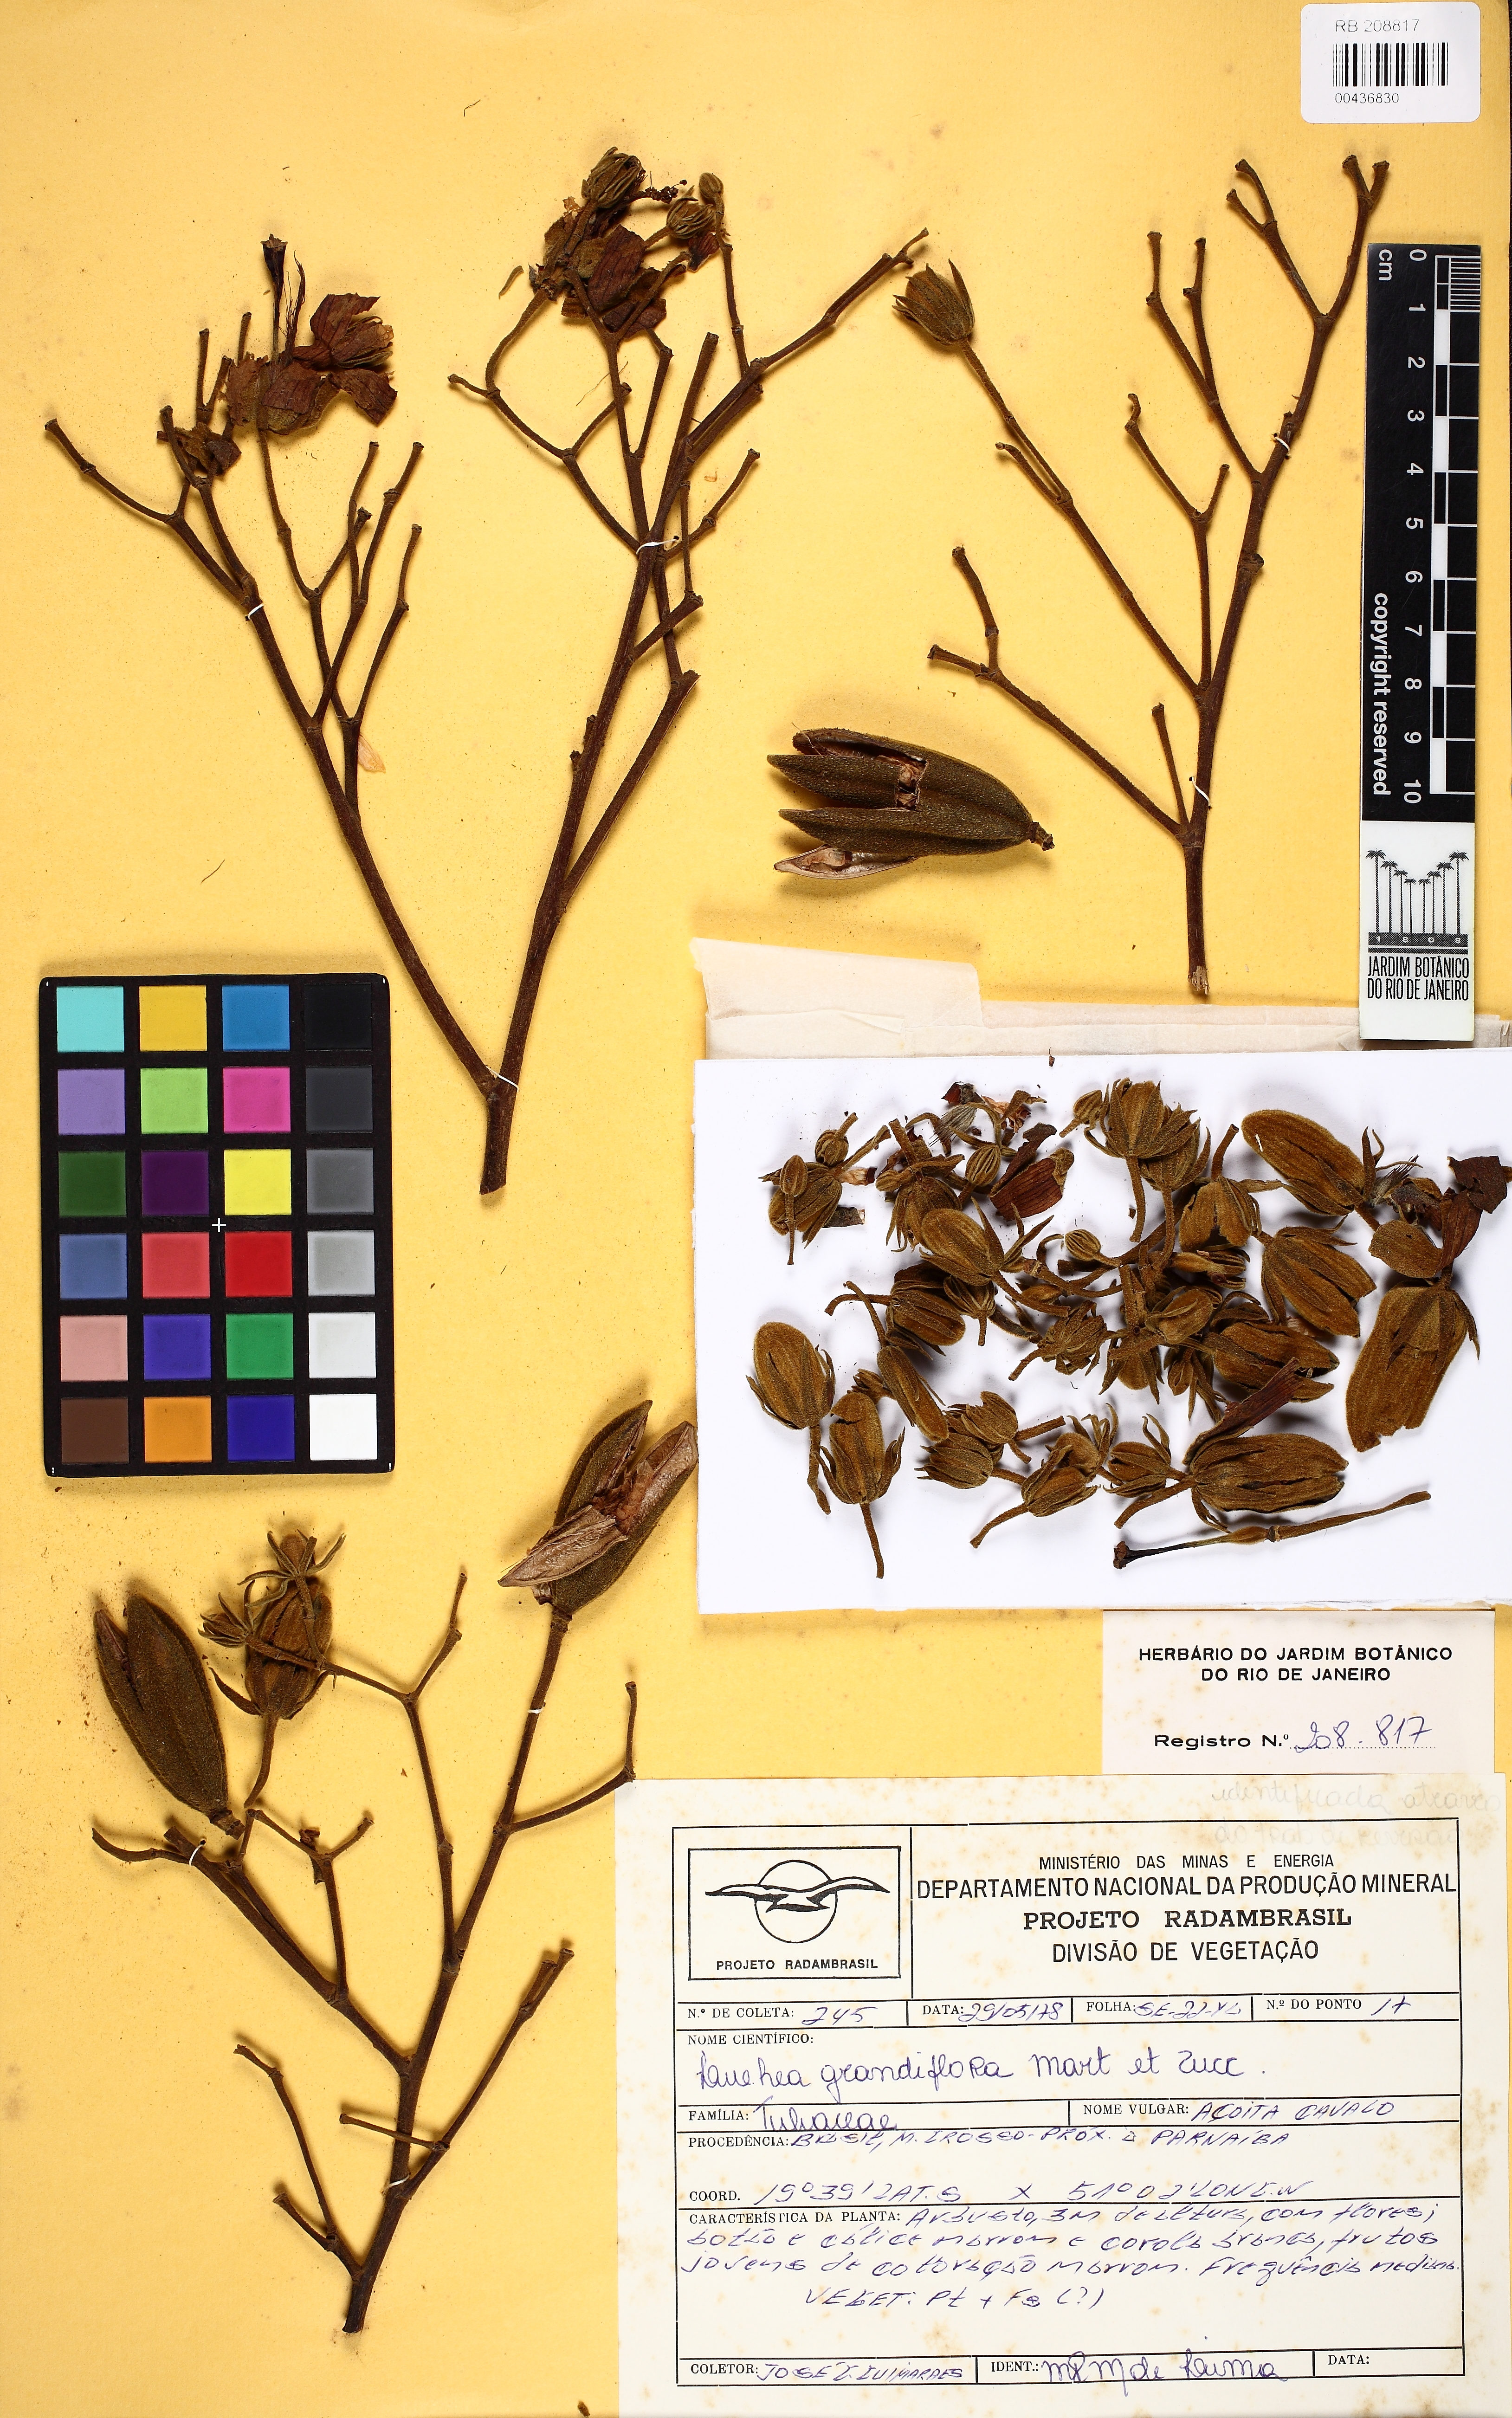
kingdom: Plantae
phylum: Tracheophyta
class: Magnoliopsida
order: Malvales
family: Malvaceae
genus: Luehea
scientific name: Luehea rufescens
